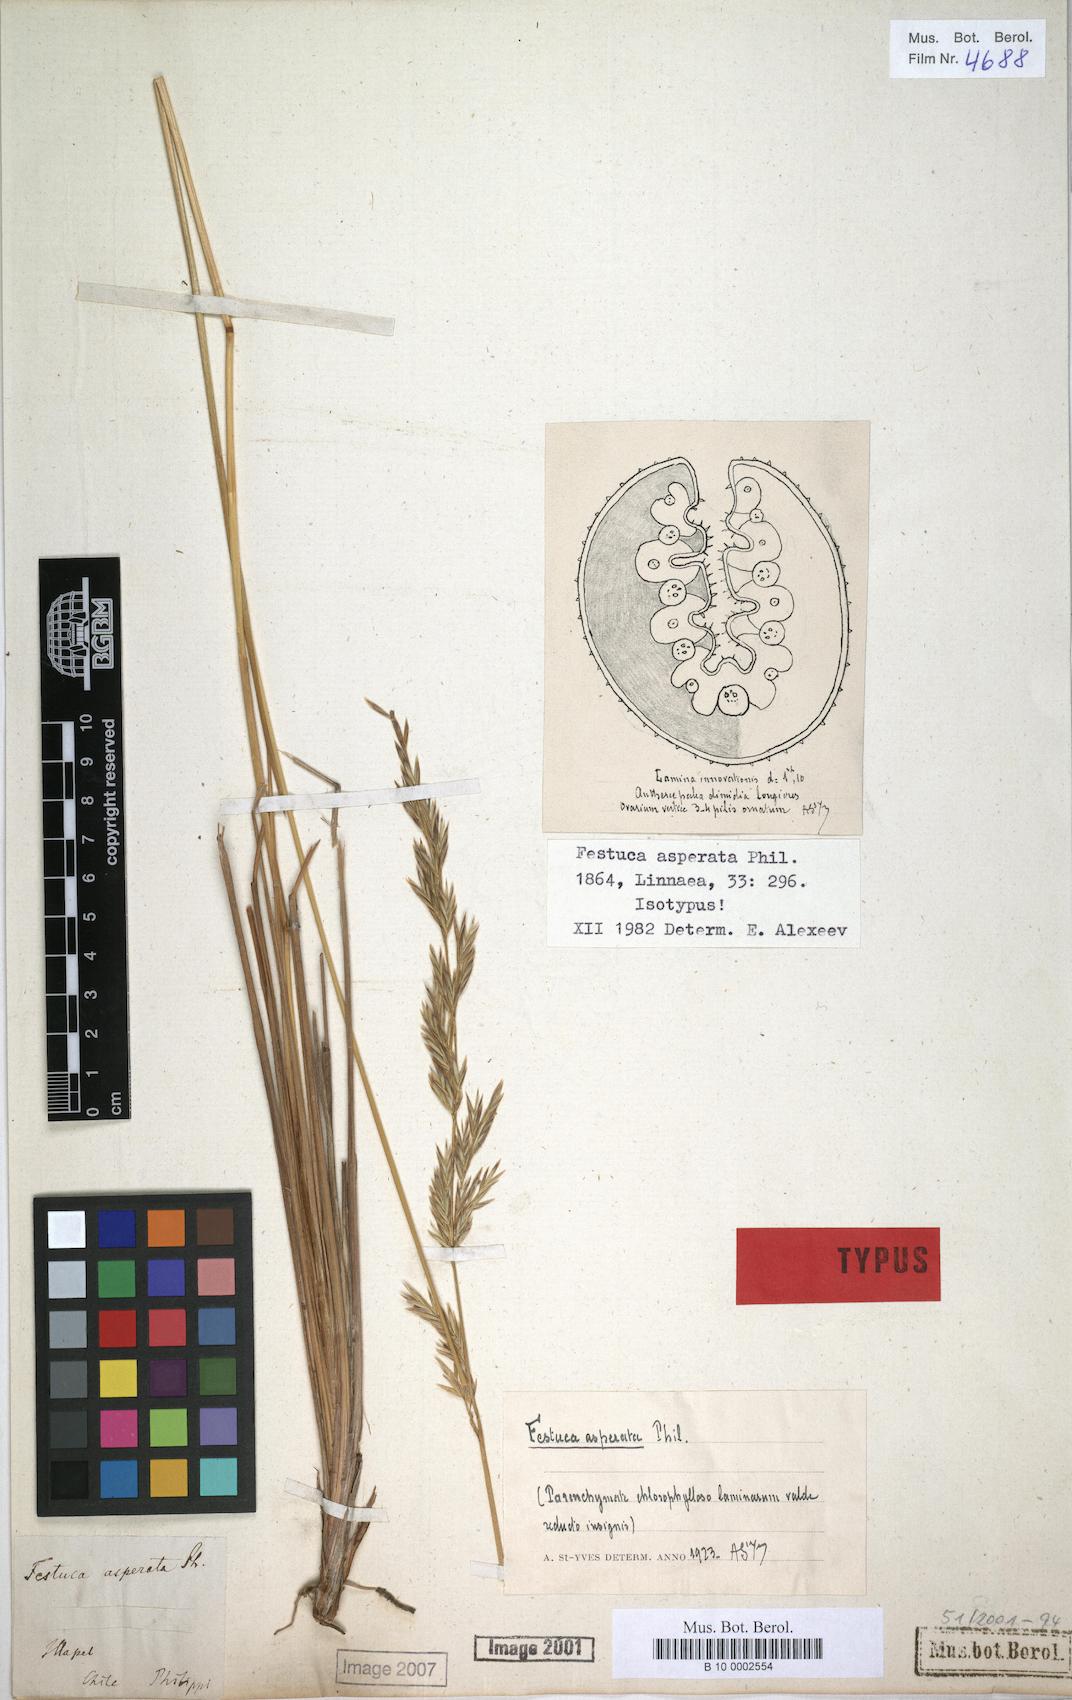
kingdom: Plantae
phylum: Tracheophyta
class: Liliopsida
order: Poales
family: Poaceae
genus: Festuca
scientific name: Festuca acanthophylla
